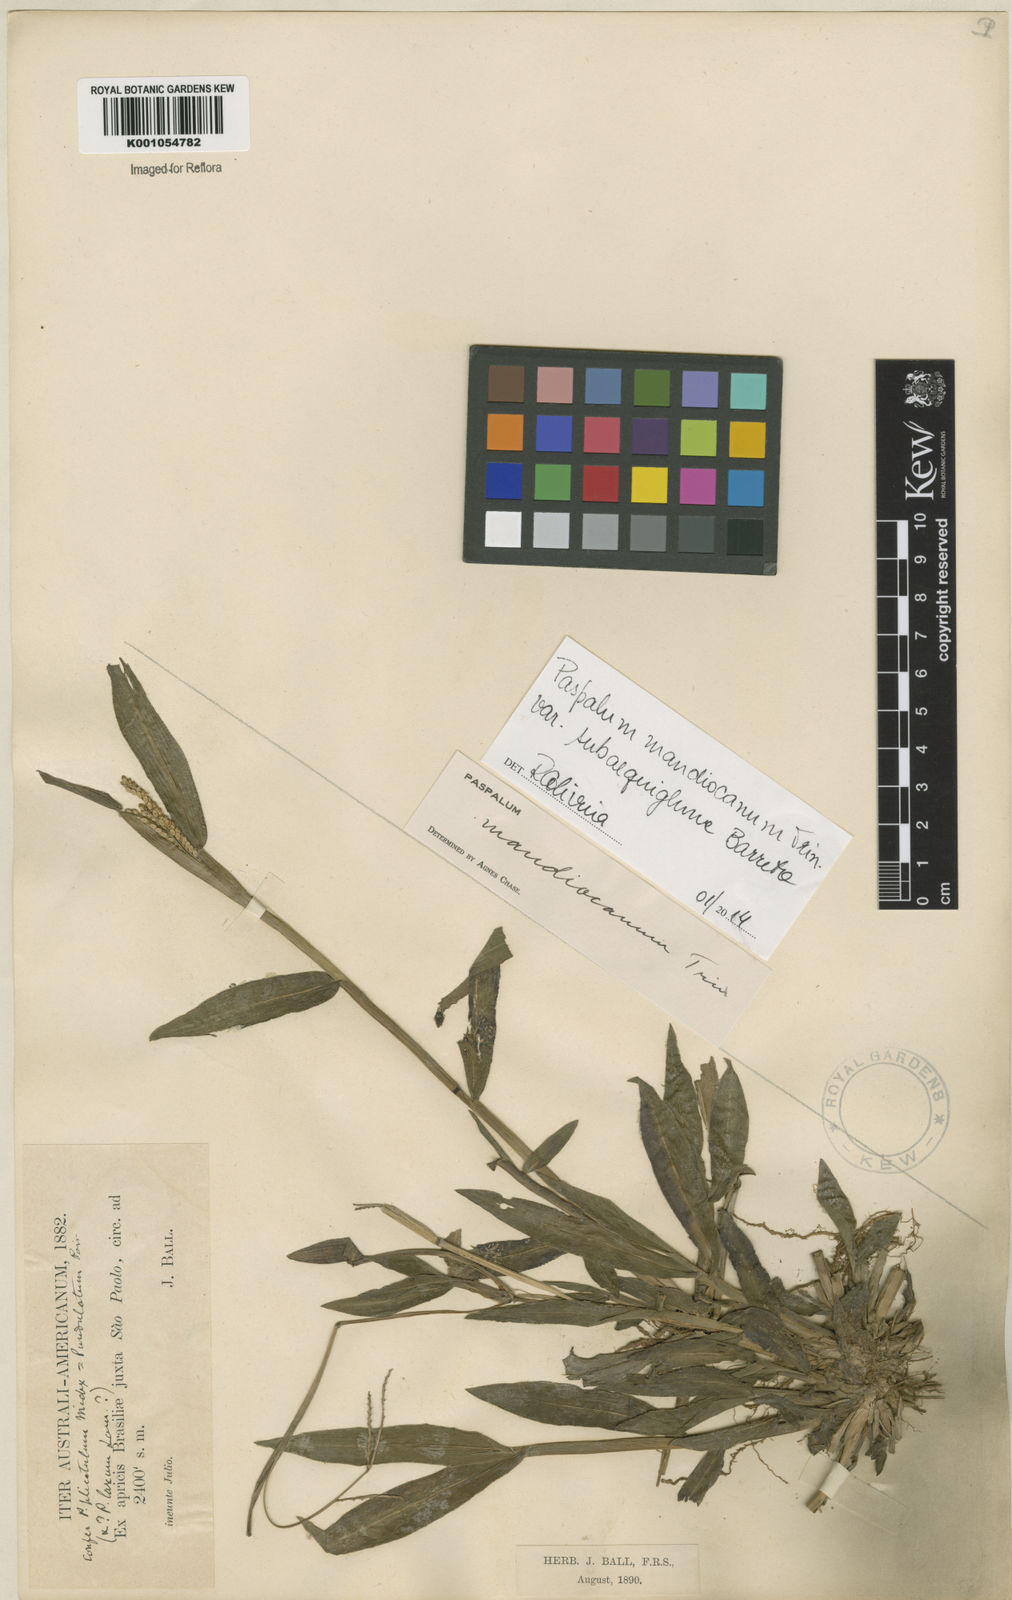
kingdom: Plantae
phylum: Tracheophyta
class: Liliopsida
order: Poales
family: Poaceae
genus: Paspalum
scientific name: Paspalum mandiocanum
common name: Paspalum
